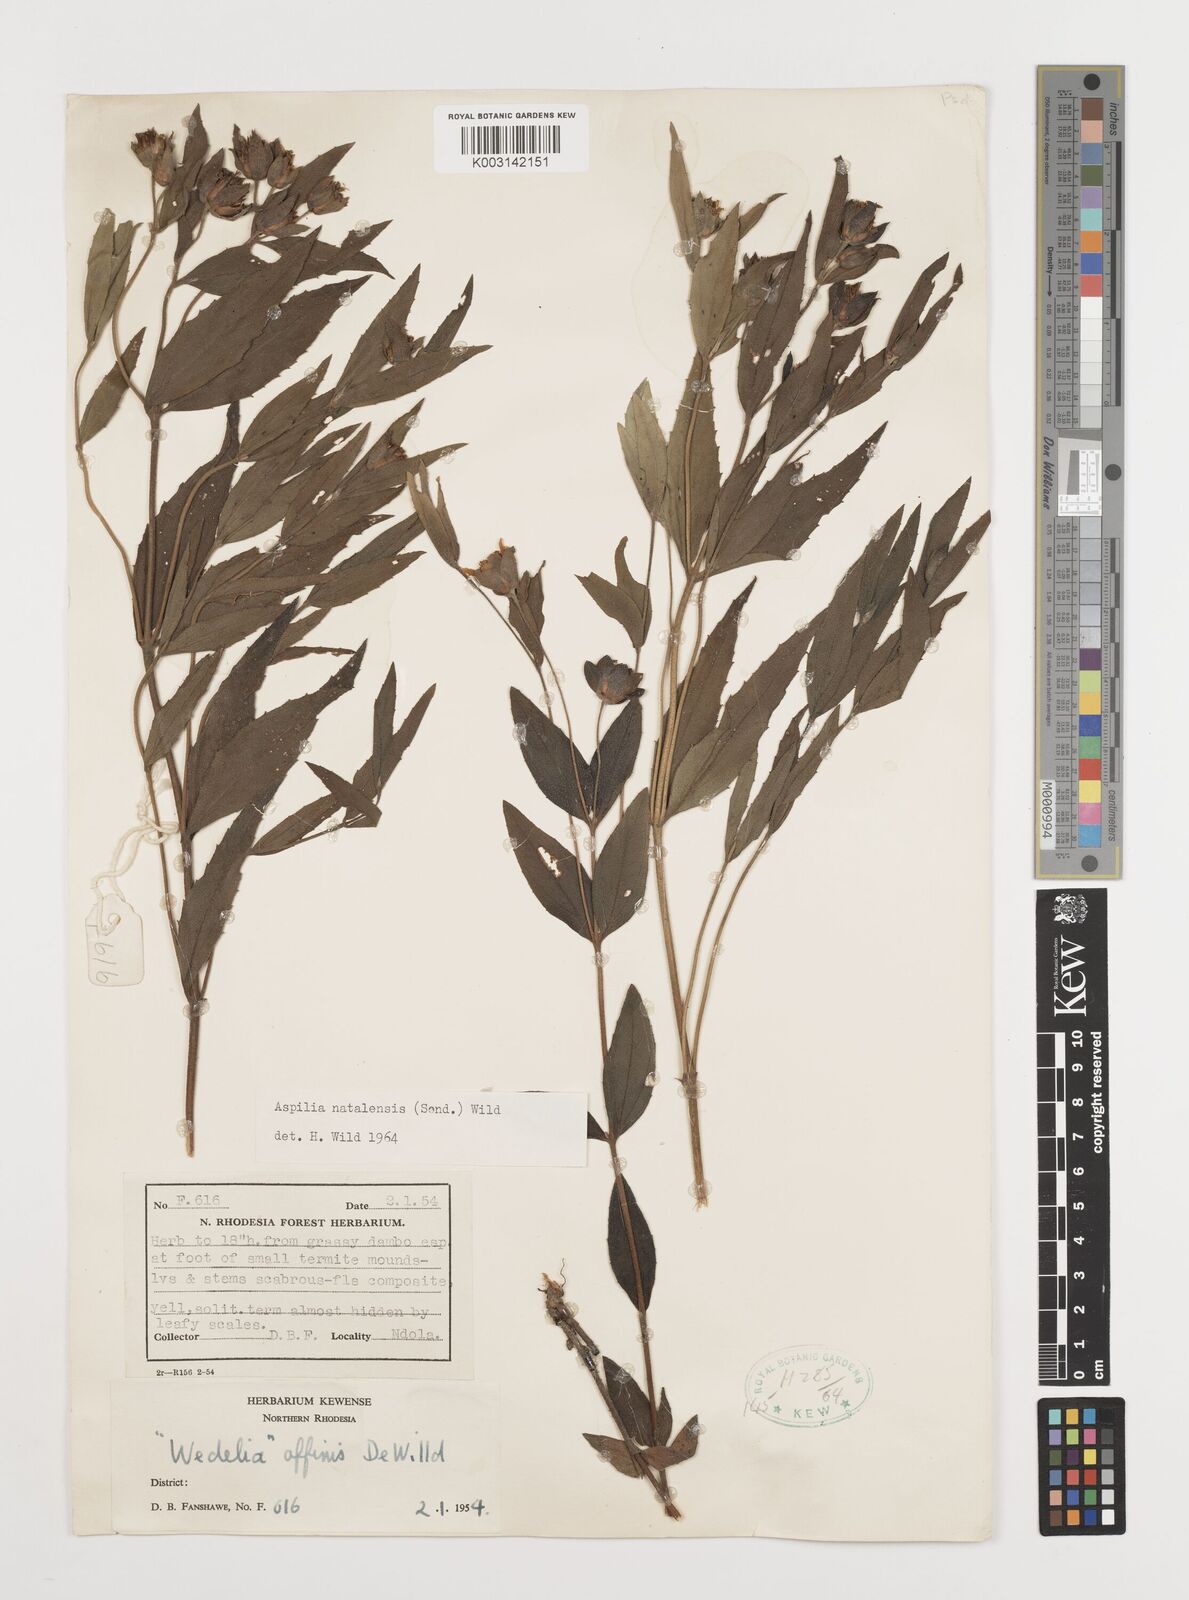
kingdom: Plantae
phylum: Tracheophyta
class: Magnoliopsida
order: Asterales
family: Asteraceae
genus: Aspilia
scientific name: Aspilia natalensis
